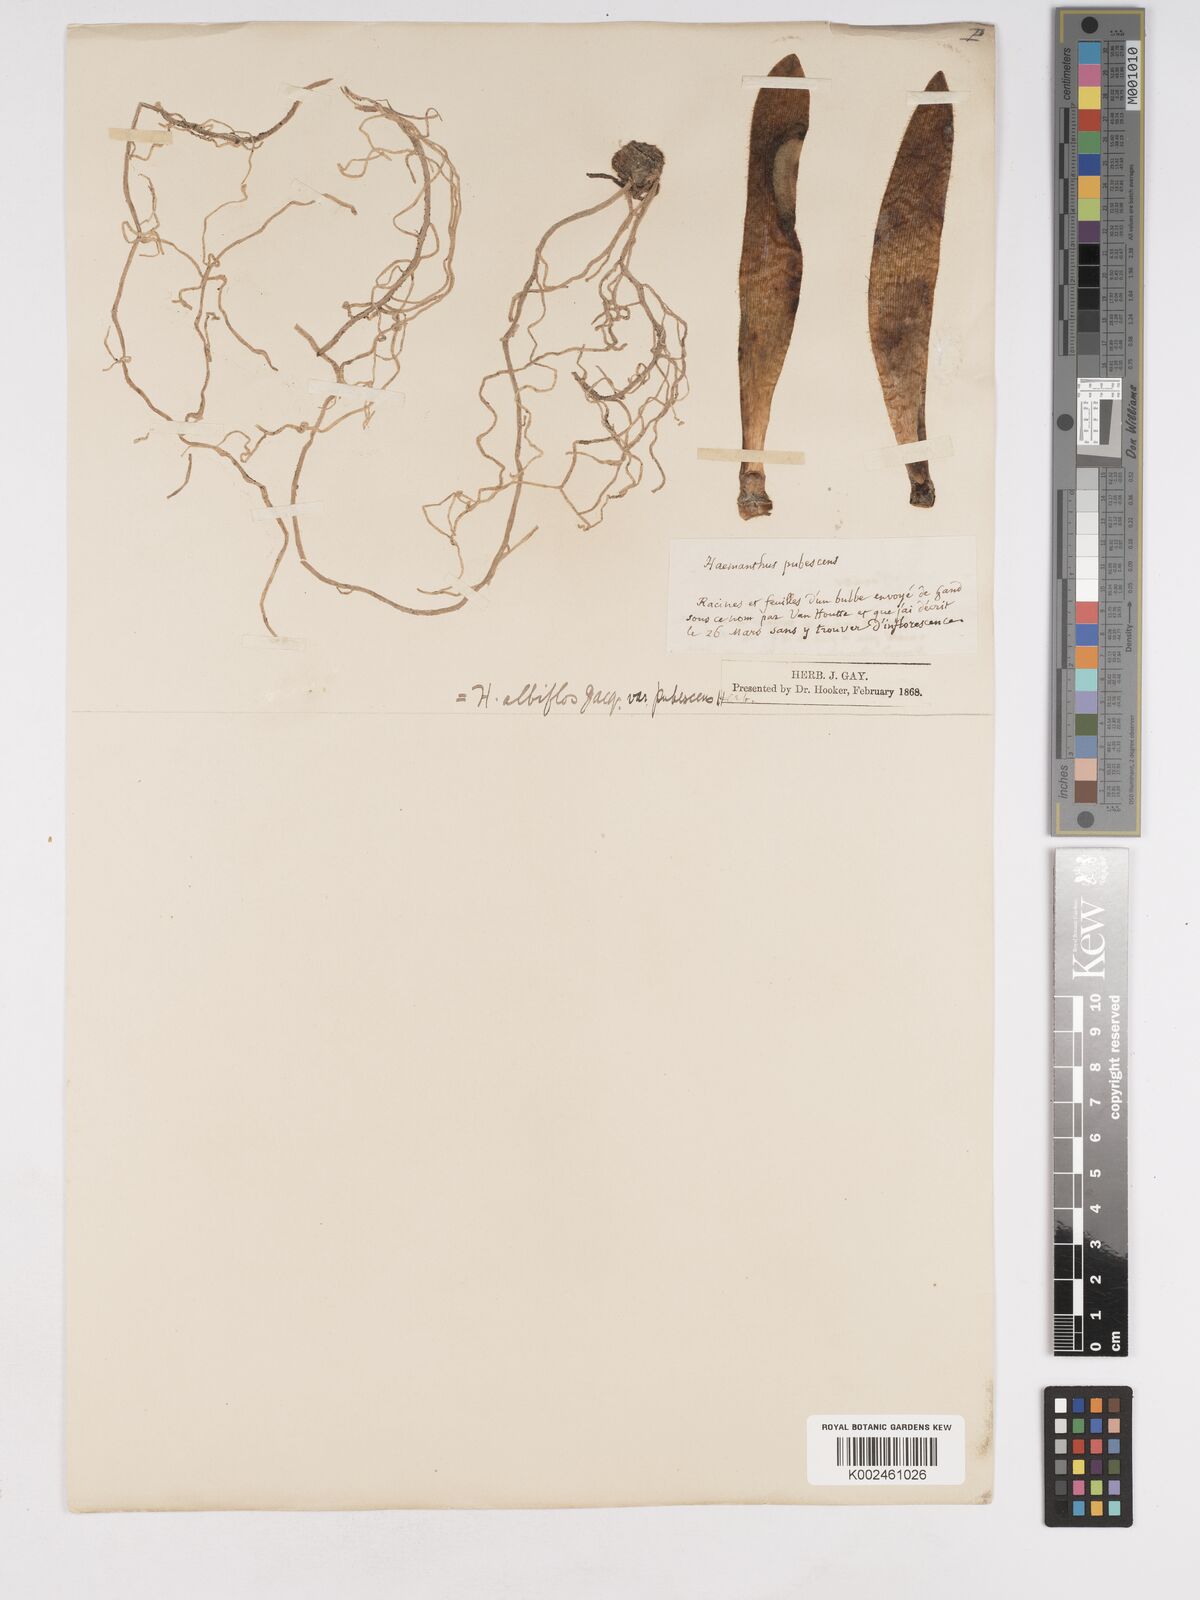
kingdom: Plantae
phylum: Tracheophyta
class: Liliopsida
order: Asparagales
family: Amaryllidaceae
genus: Haemanthus
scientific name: Haemanthus pubescens
